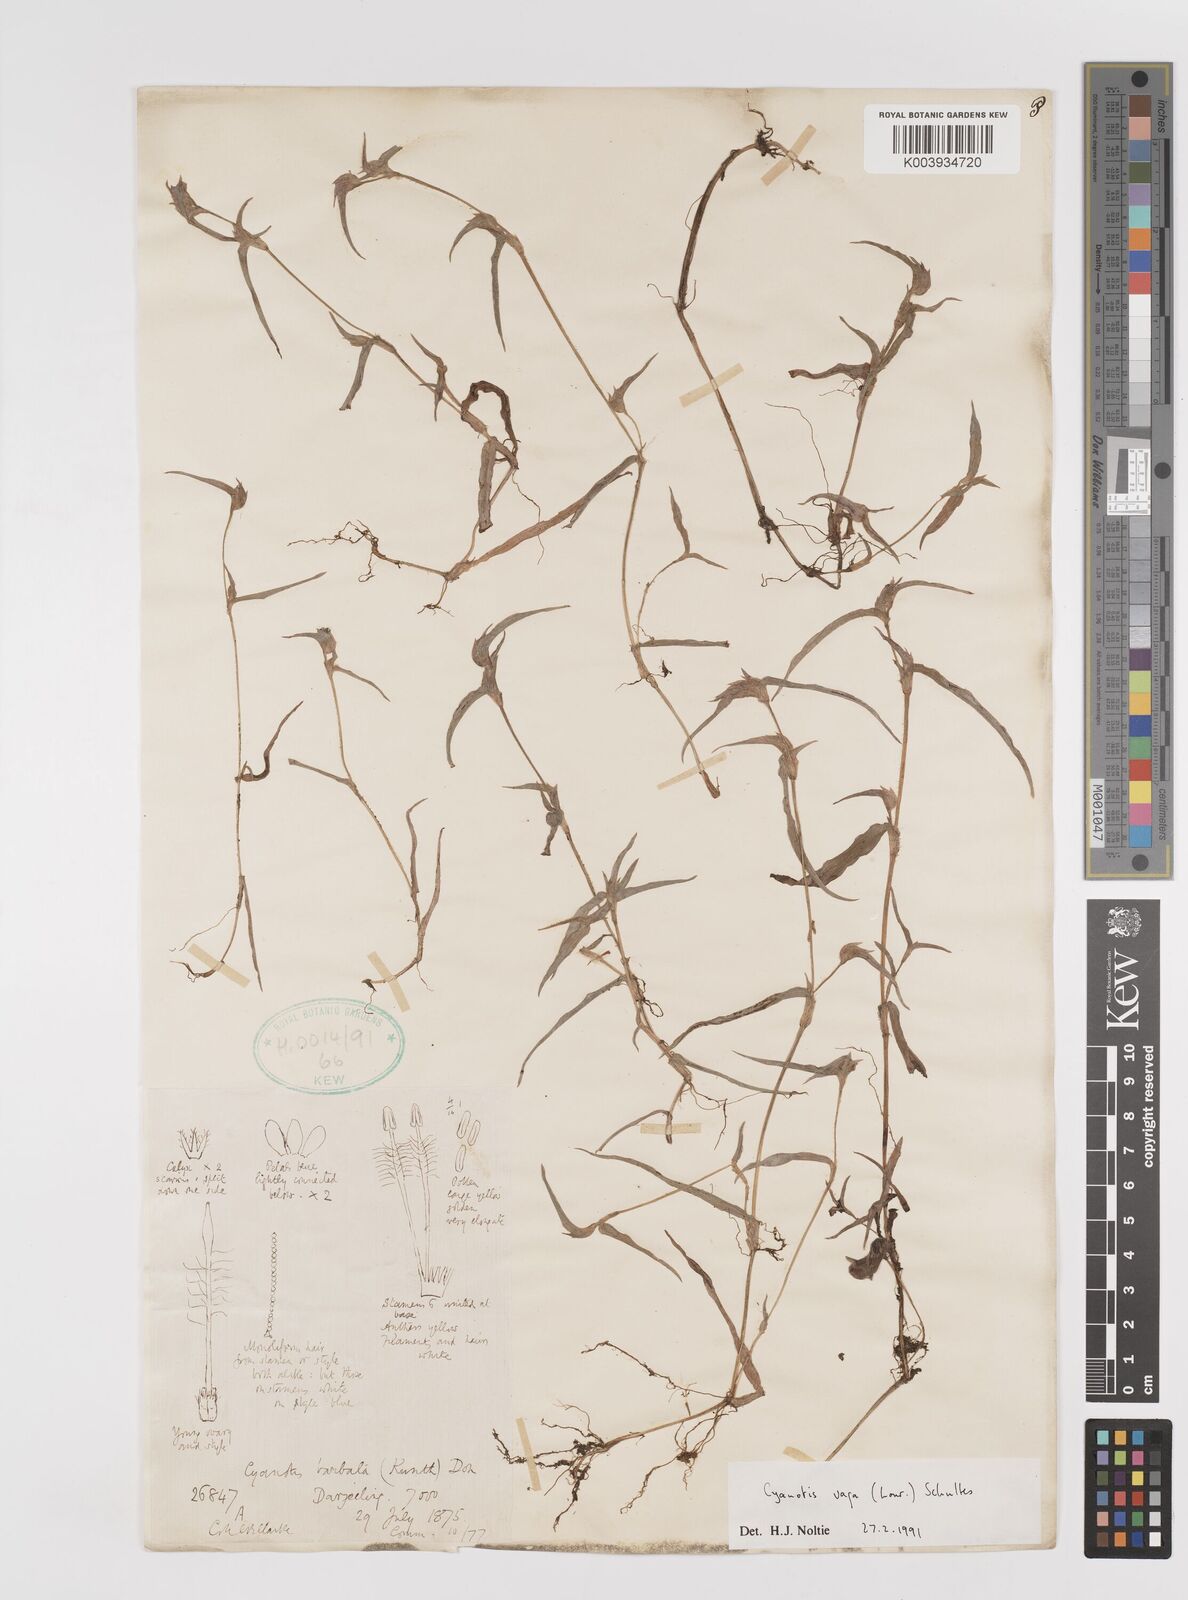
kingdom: Plantae
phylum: Tracheophyta
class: Liliopsida
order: Commelinales
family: Commelinaceae
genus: Cyanotis
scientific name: Cyanotis vaga
